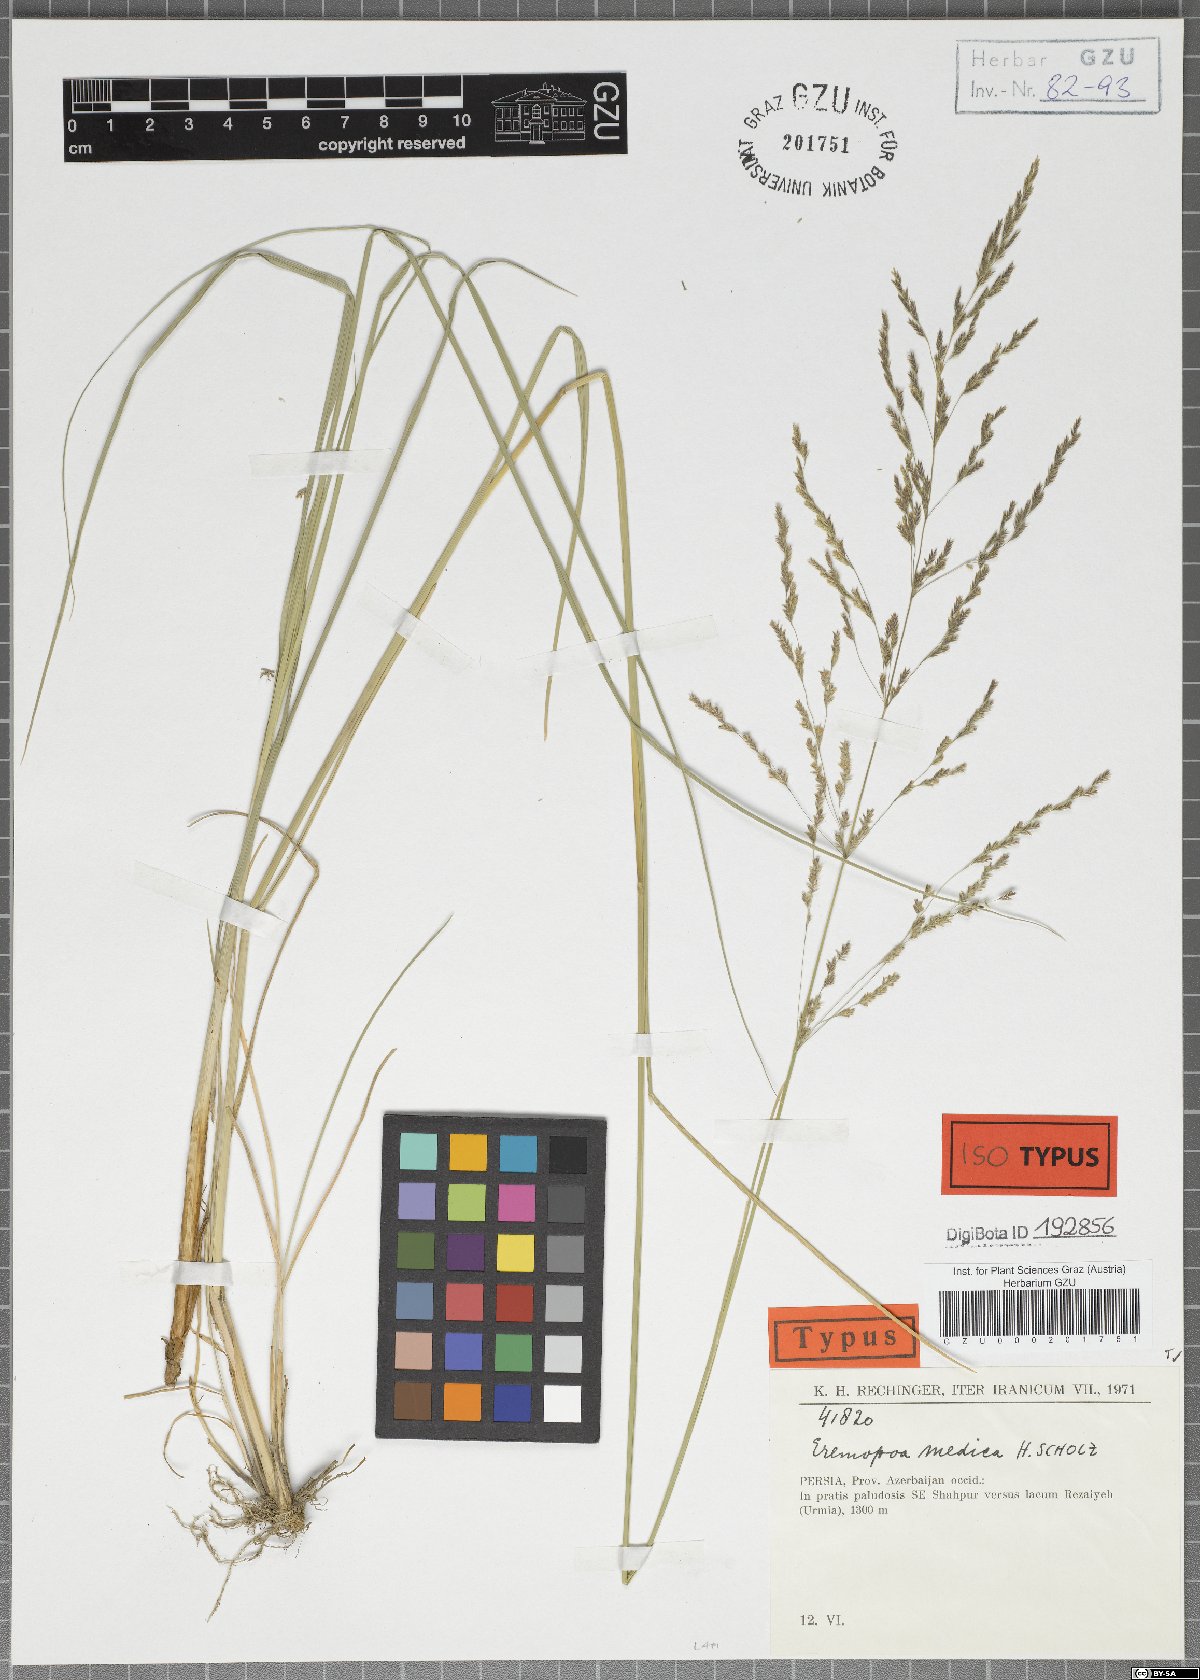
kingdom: Plantae
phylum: Tracheophyta
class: Liliopsida
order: Poales
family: Poaceae
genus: Puccinellia
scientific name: Puccinellia gigantea
